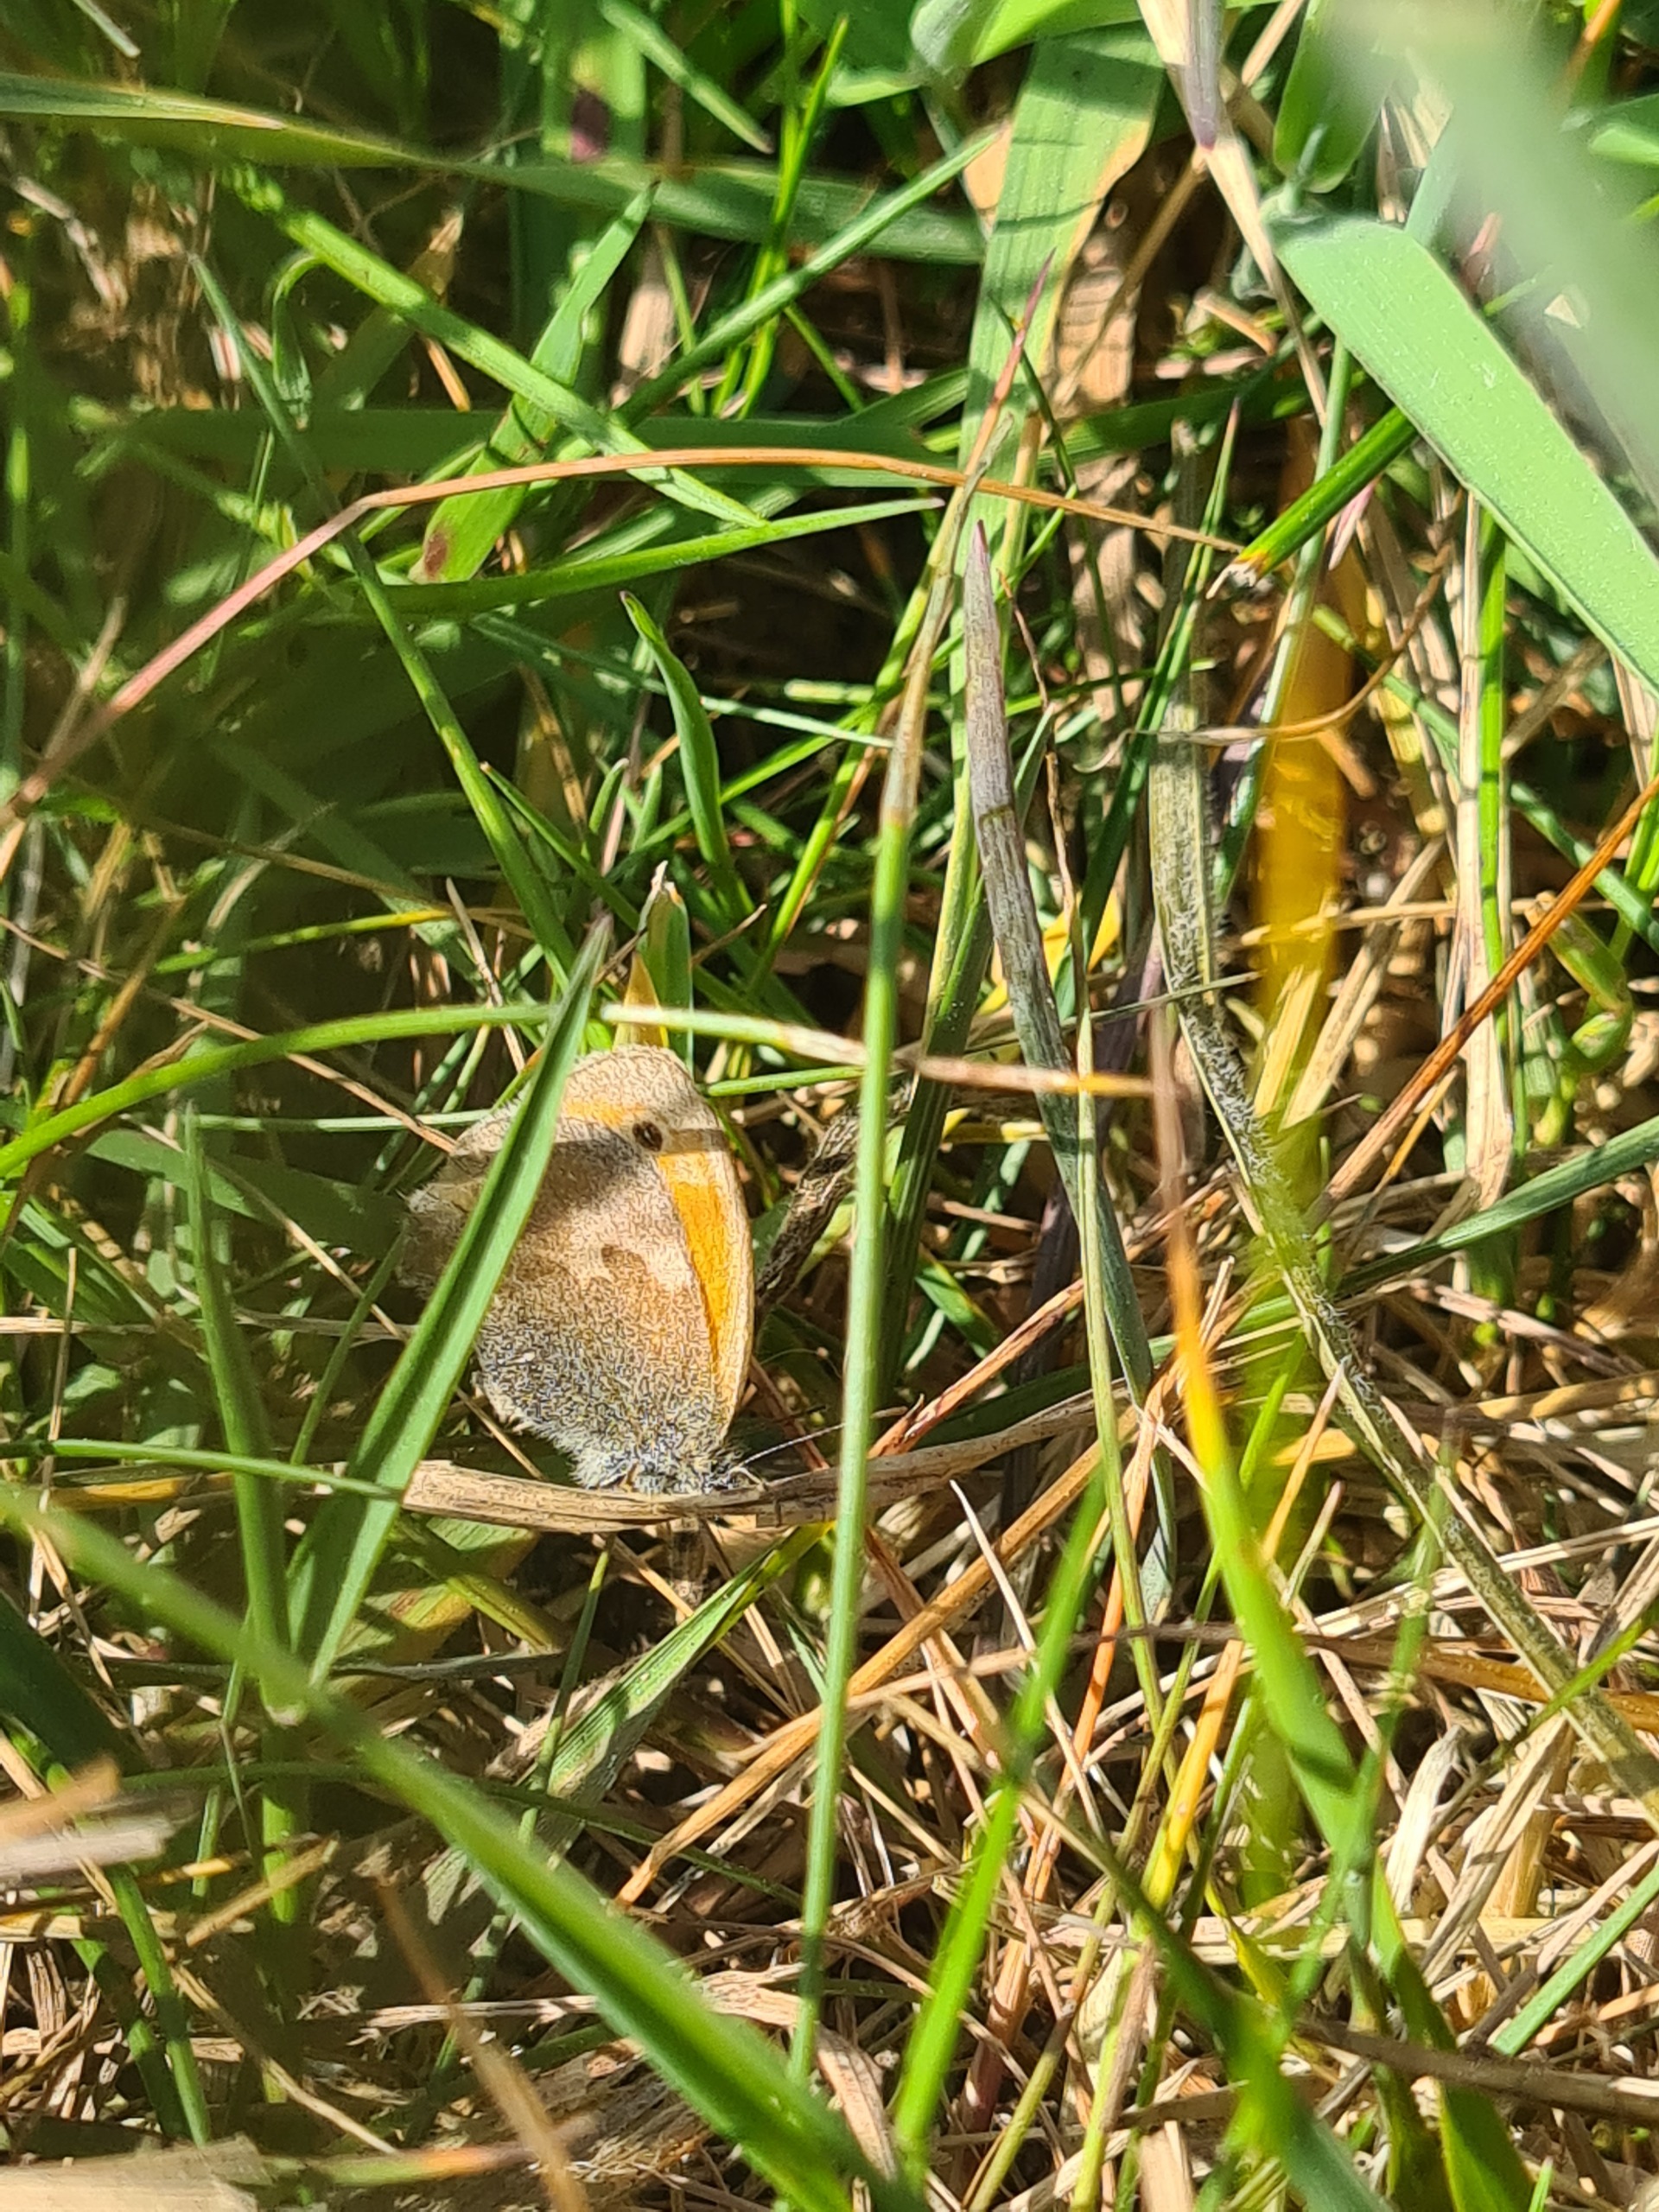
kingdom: Animalia
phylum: Arthropoda
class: Insecta
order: Lepidoptera
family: Nymphalidae
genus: Coenonympha
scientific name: Coenonympha pamphilus
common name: Okkergul randøje
